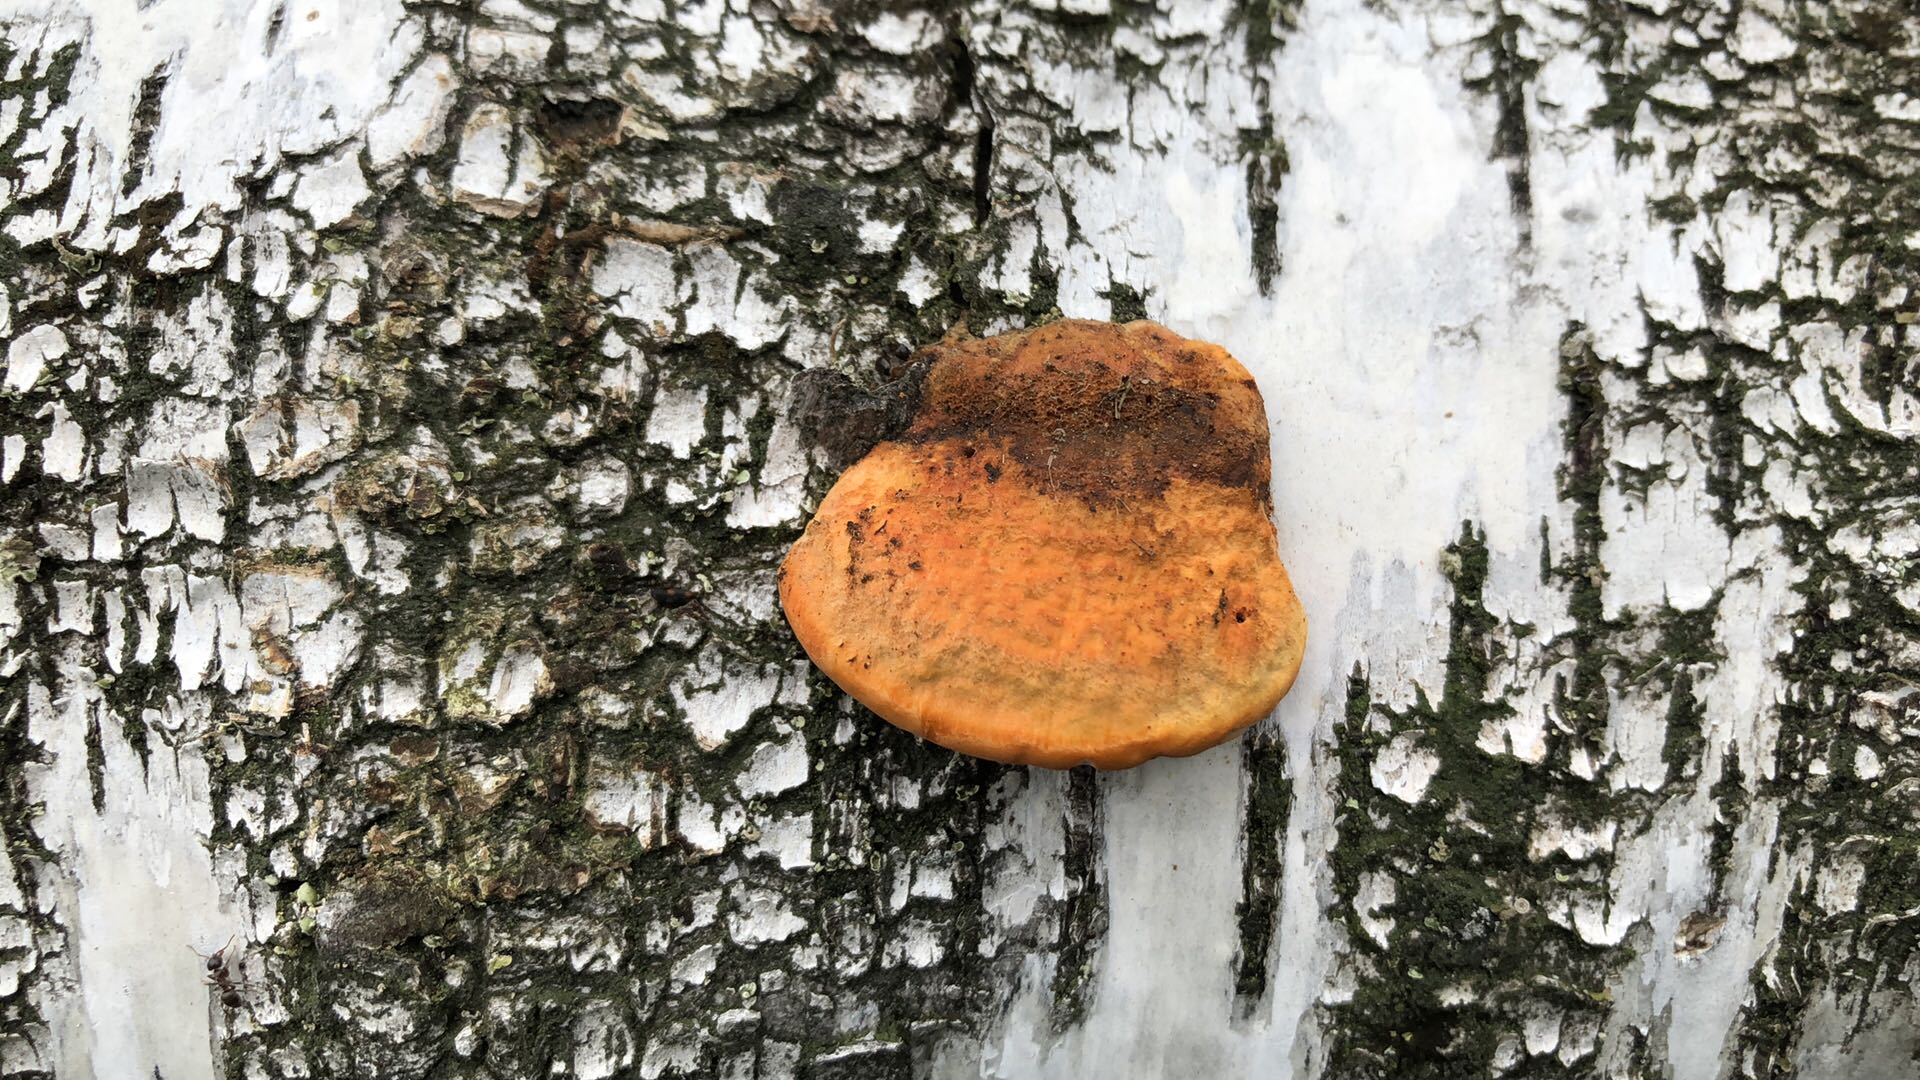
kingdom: Fungi
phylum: Basidiomycota
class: Agaricomycetes
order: Polyporales
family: Polyporaceae
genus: Trametes
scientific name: Trametes cinnabarina
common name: cinnoberporesvamp
